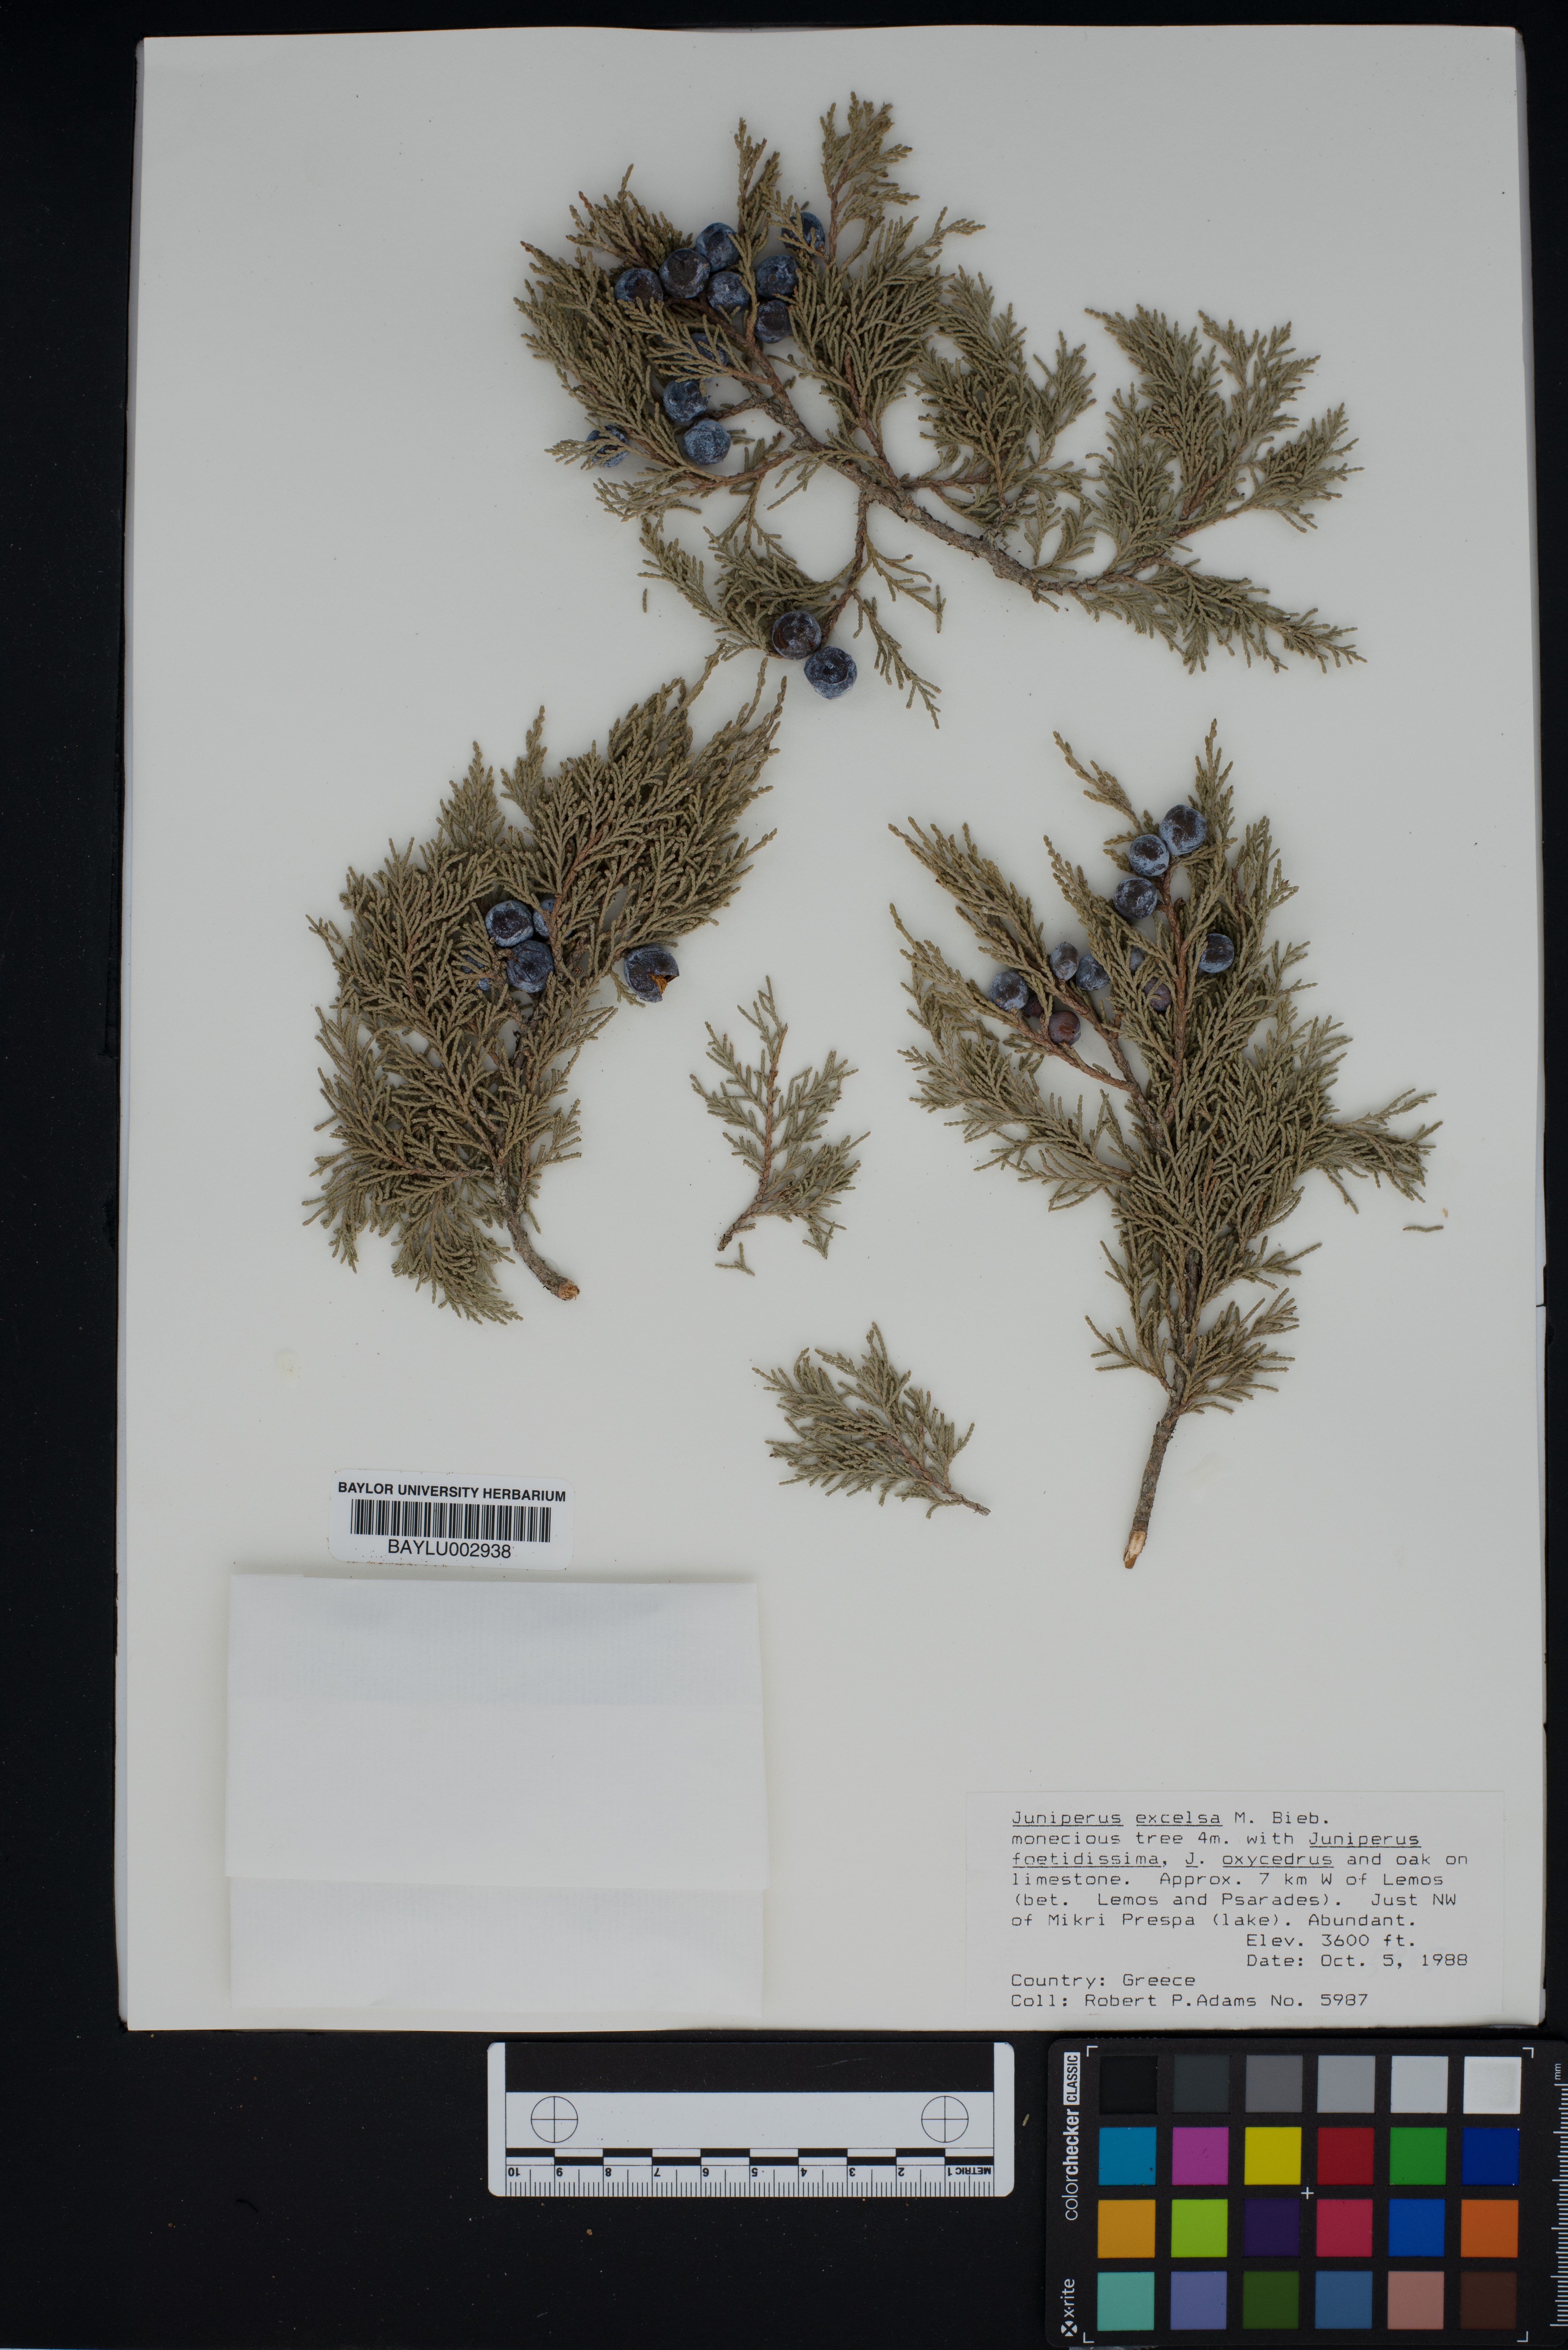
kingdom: Plantae
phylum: Tracheophyta
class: Pinopsida
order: Pinales
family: Cupressaceae
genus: Juniperus
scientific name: Juniperus excelsa
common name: Crimean juniper
